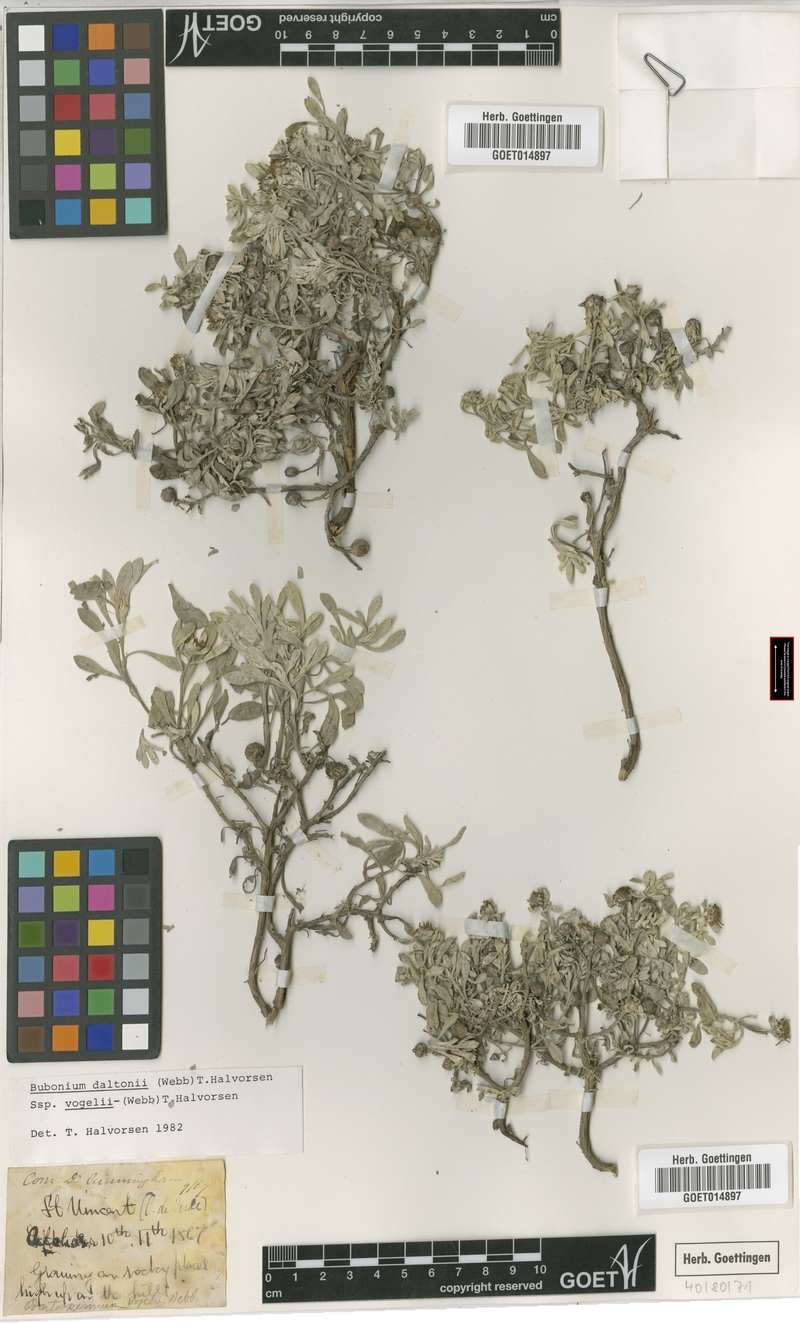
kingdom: Plantae
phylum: Tracheophyta
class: Magnoliopsida
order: Asterales
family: Asteraceae
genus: Asteriscus
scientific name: Asteriscus daltonii
